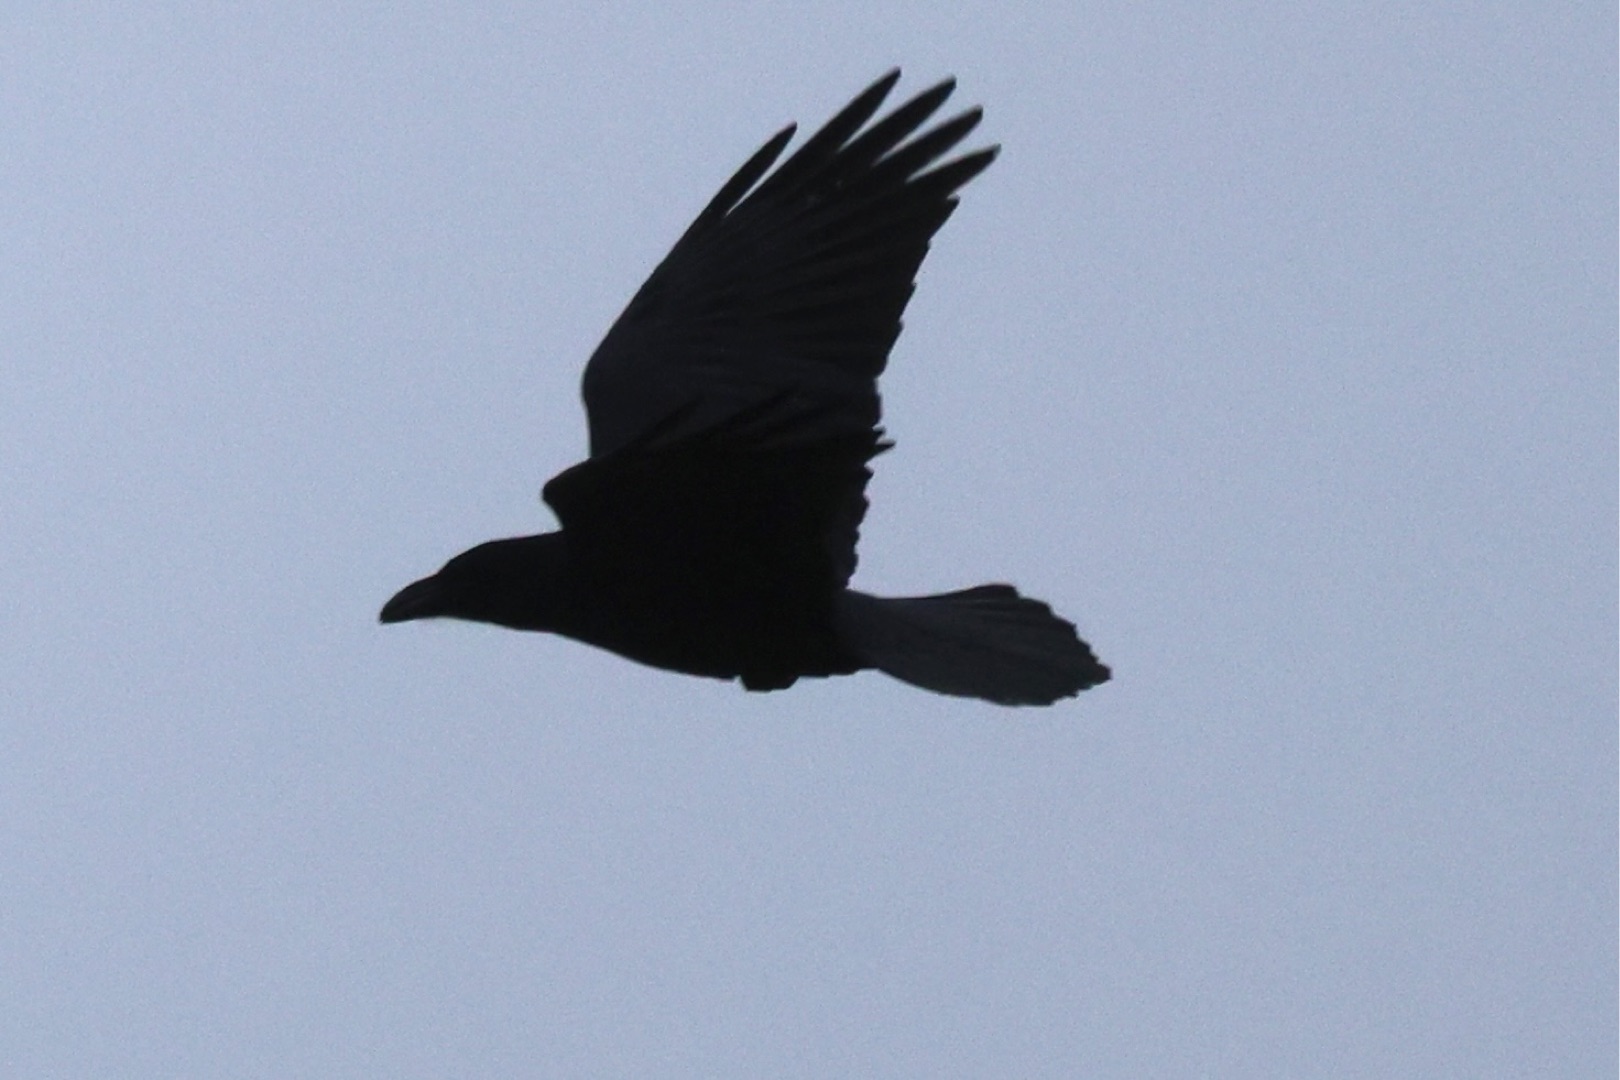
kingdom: Animalia
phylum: Chordata
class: Aves
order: Passeriformes
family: Corvidae
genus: Corvus
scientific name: Corvus corax
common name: Ravn
